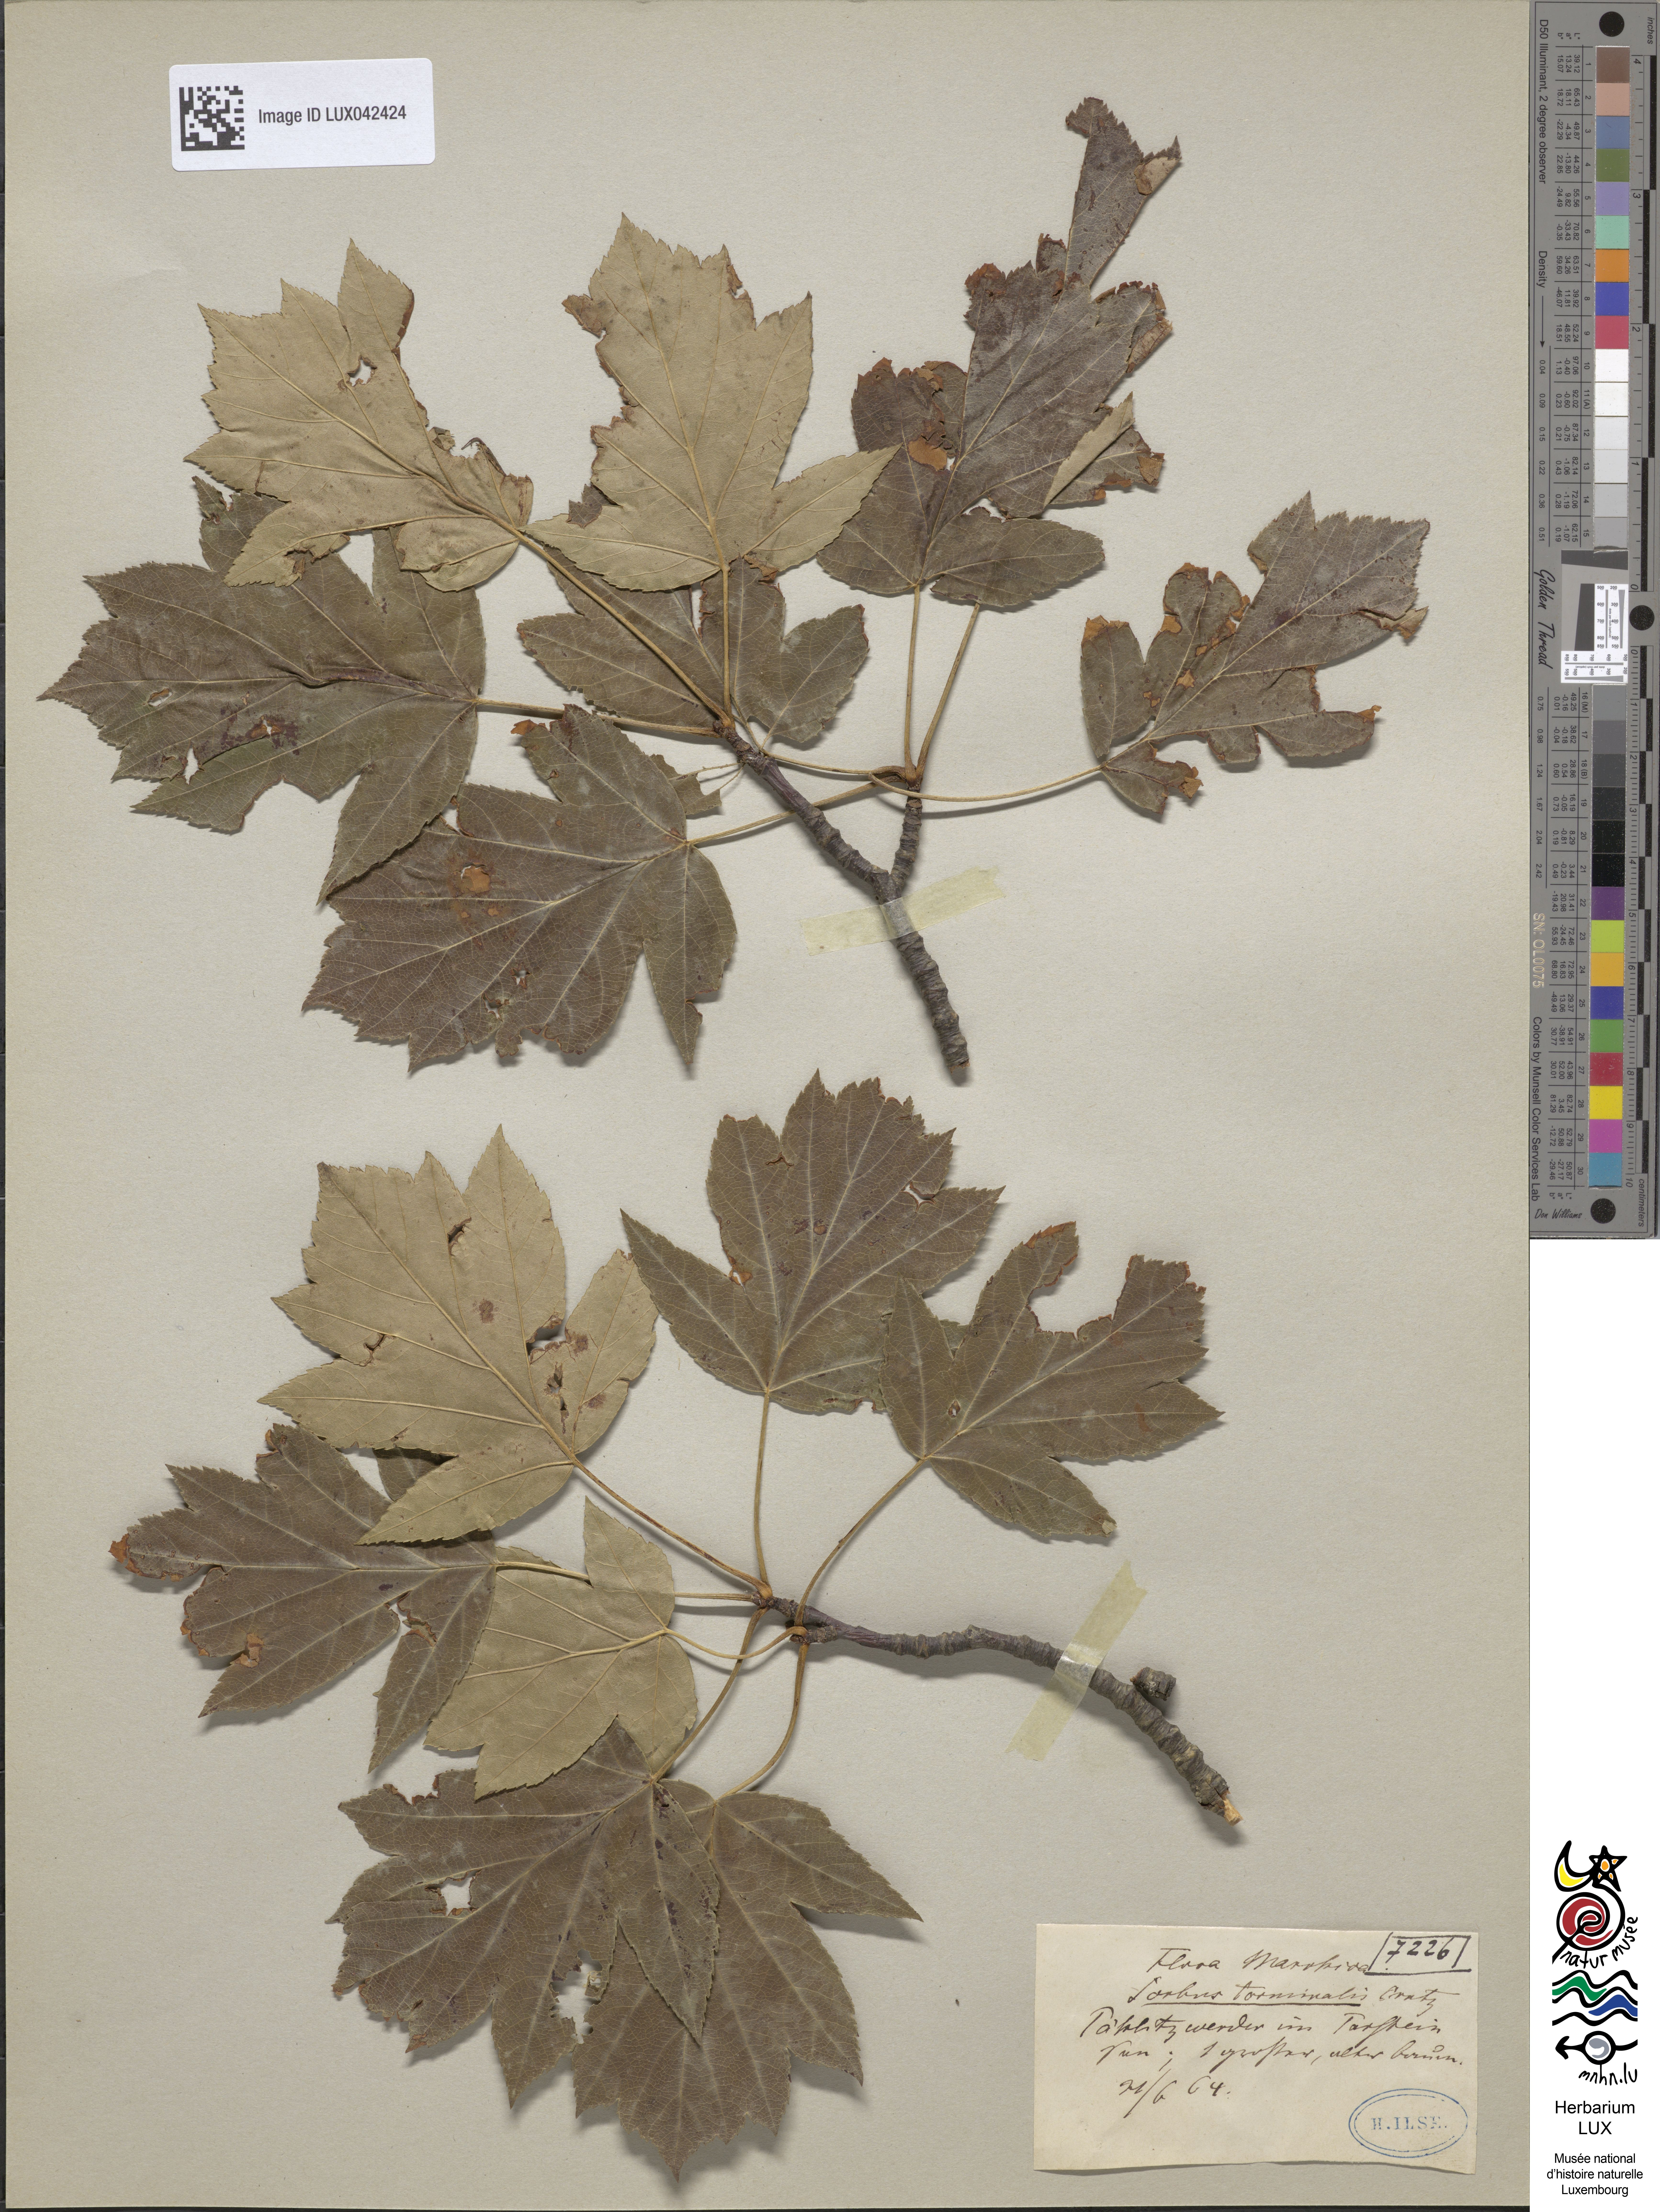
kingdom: Plantae
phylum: Tracheophyta
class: Magnoliopsida
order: Rosales
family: Rosaceae
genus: Torminalis
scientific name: Torminalis glaberrima
